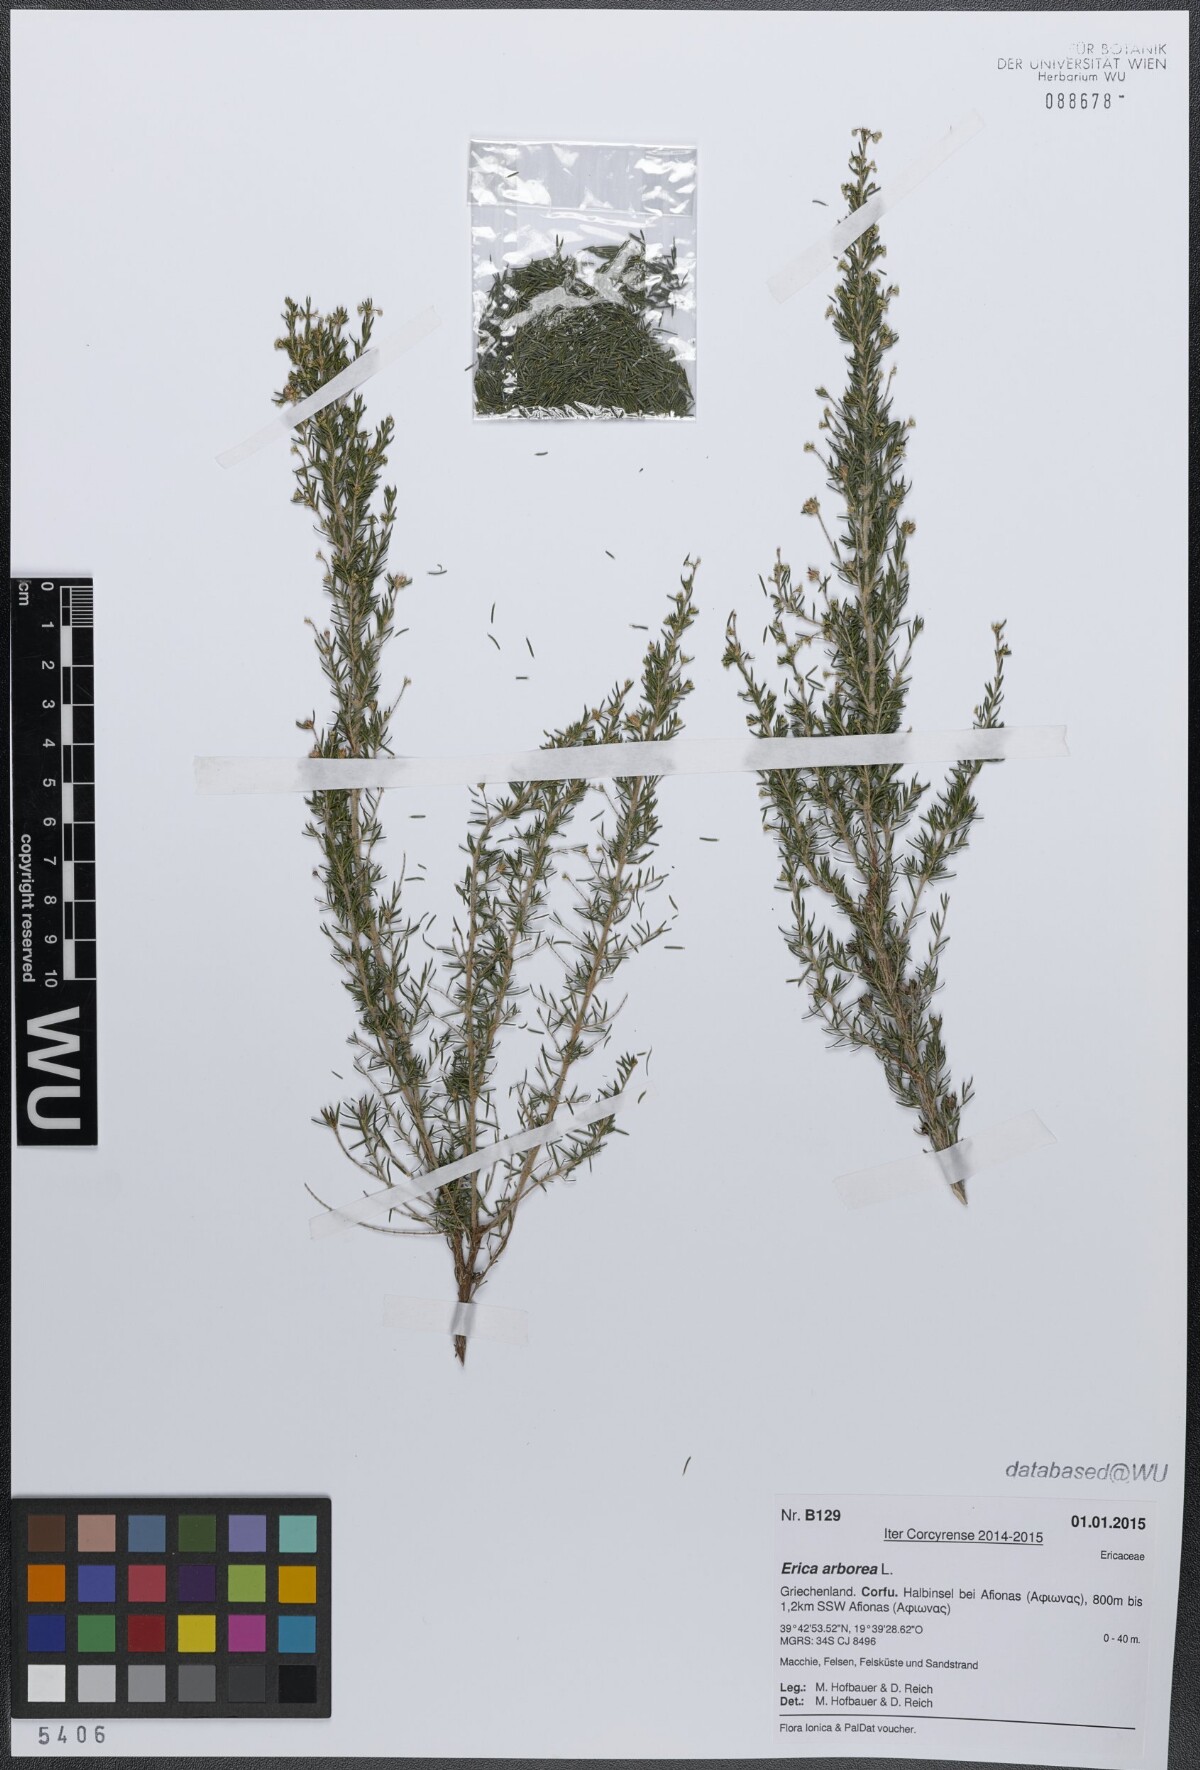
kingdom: Plantae
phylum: Tracheophyta
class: Magnoliopsida
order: Ericales
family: Ericaceae
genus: Erica
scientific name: Erica arborea
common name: Tree heath
